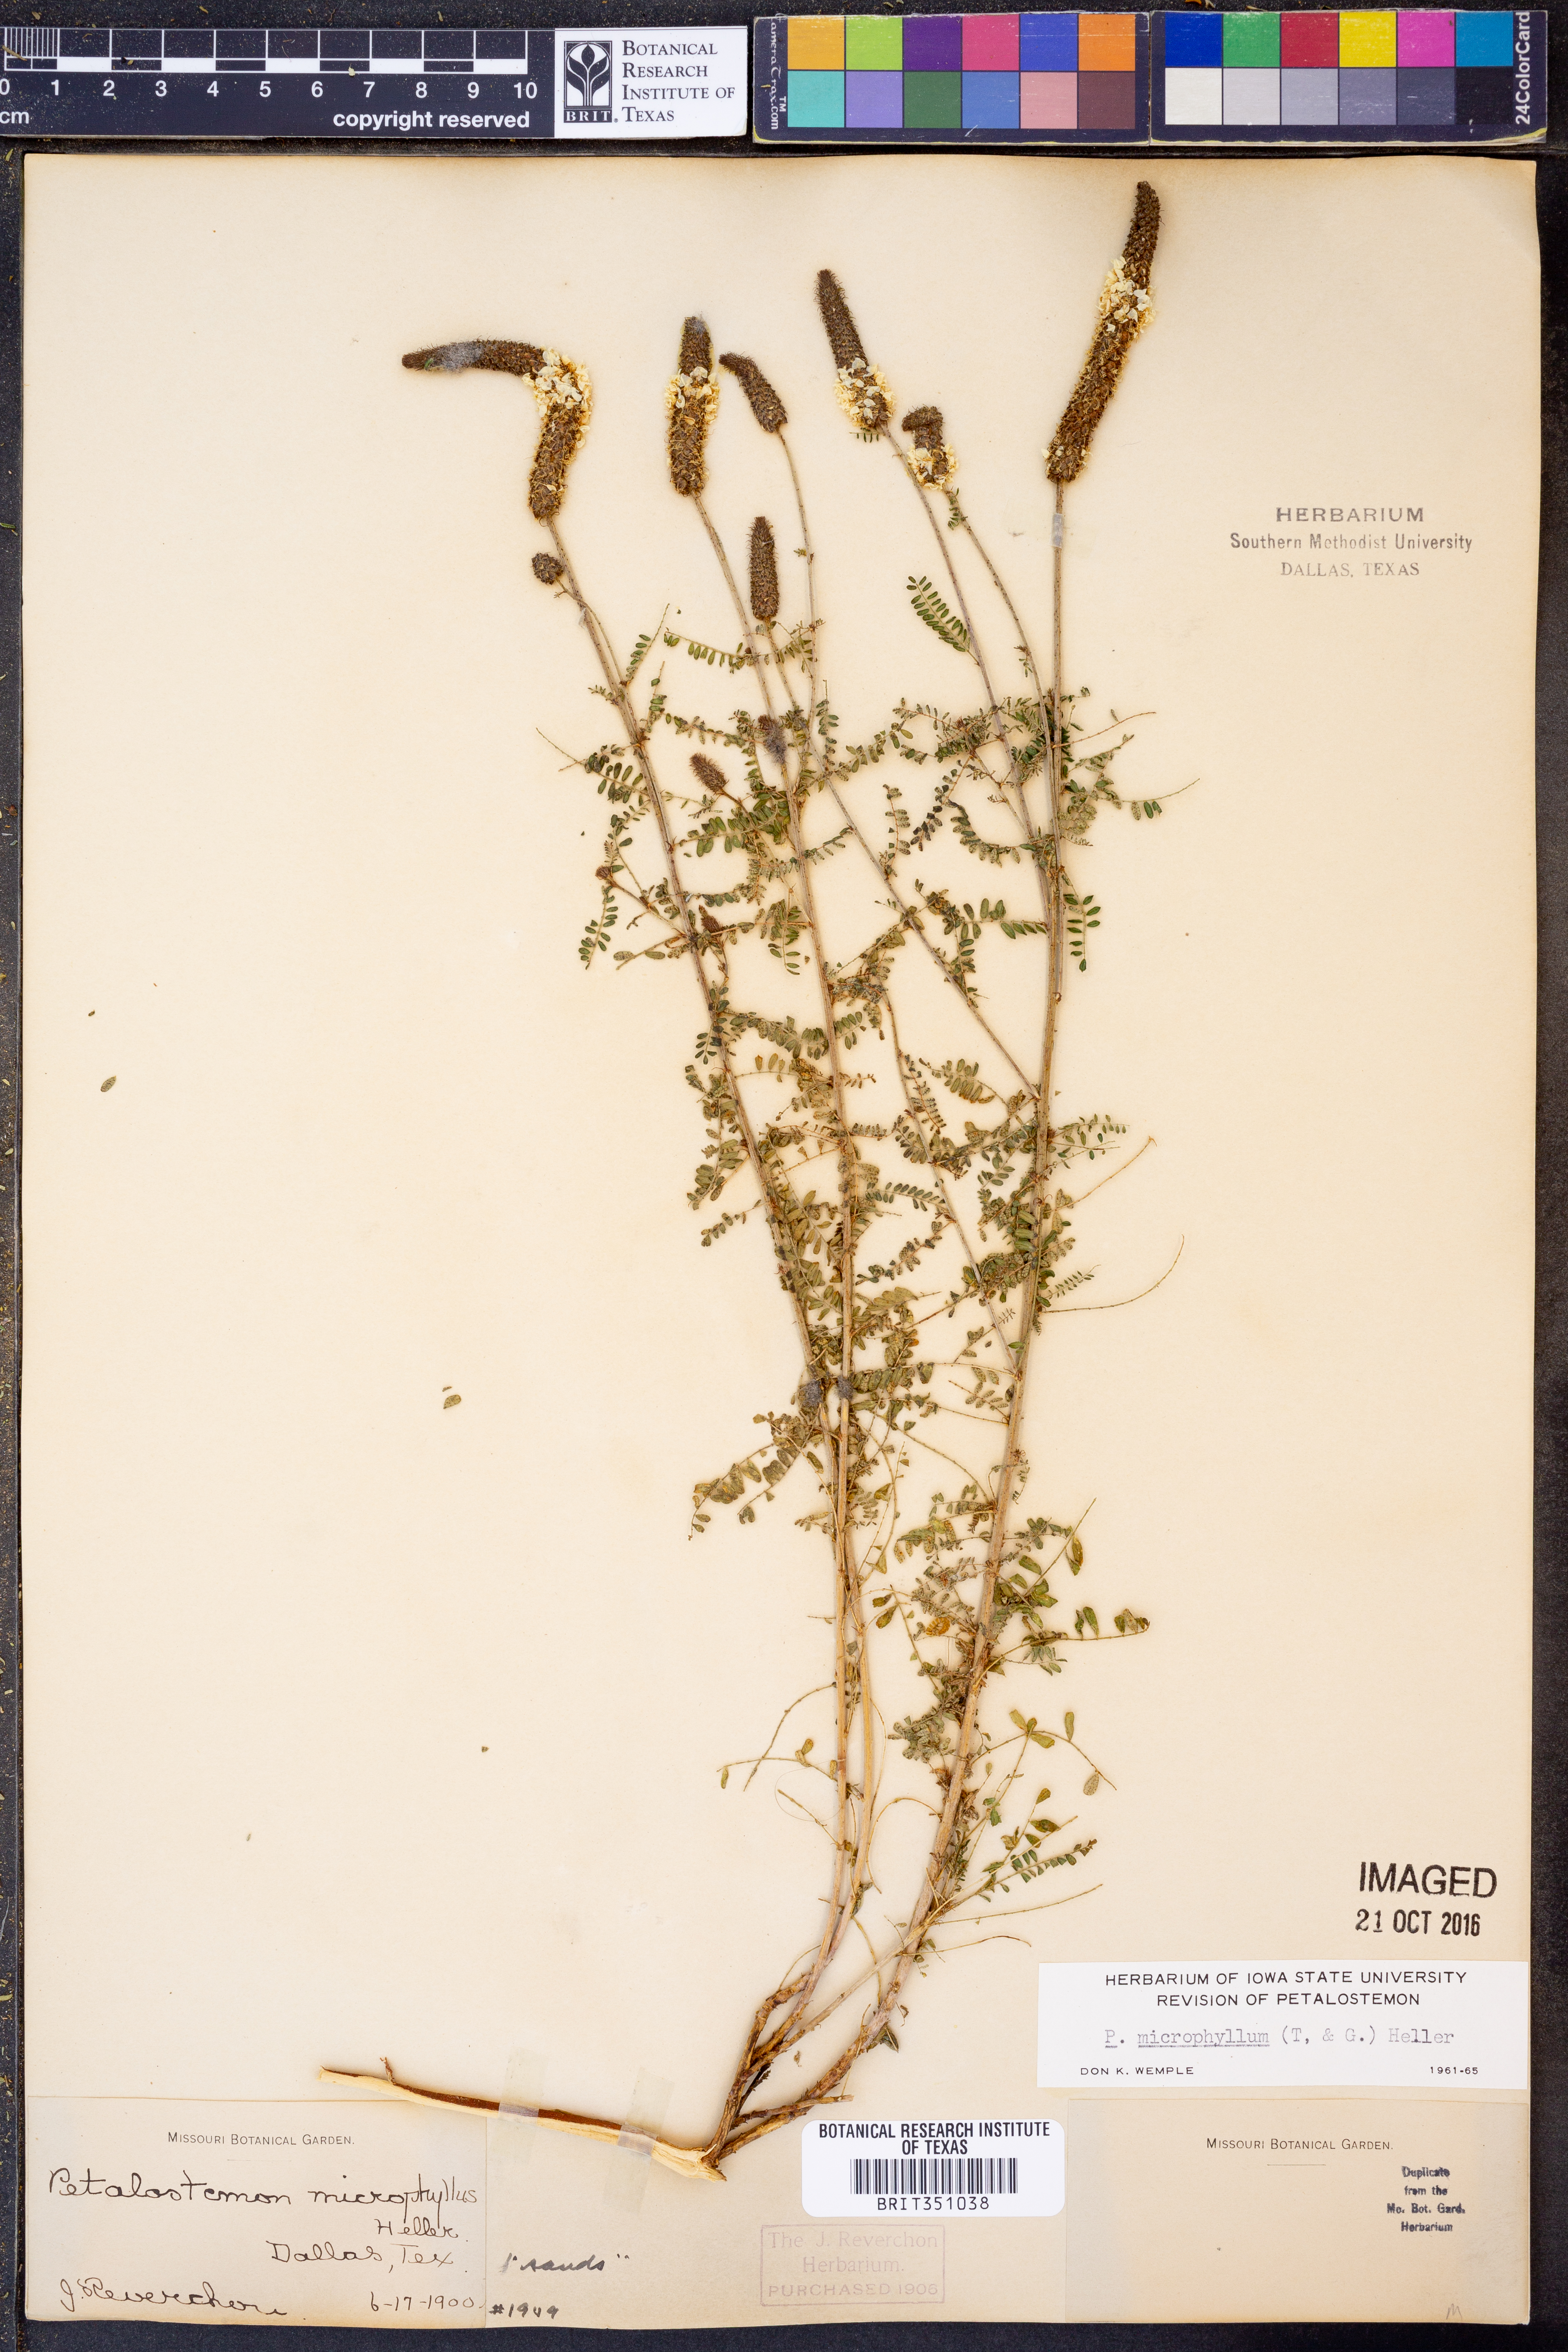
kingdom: Plantae
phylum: Tracheophyta
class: Magnoliopsida
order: Fabales
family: Fabaceae
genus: Dalea
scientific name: Dalea drummondiana
